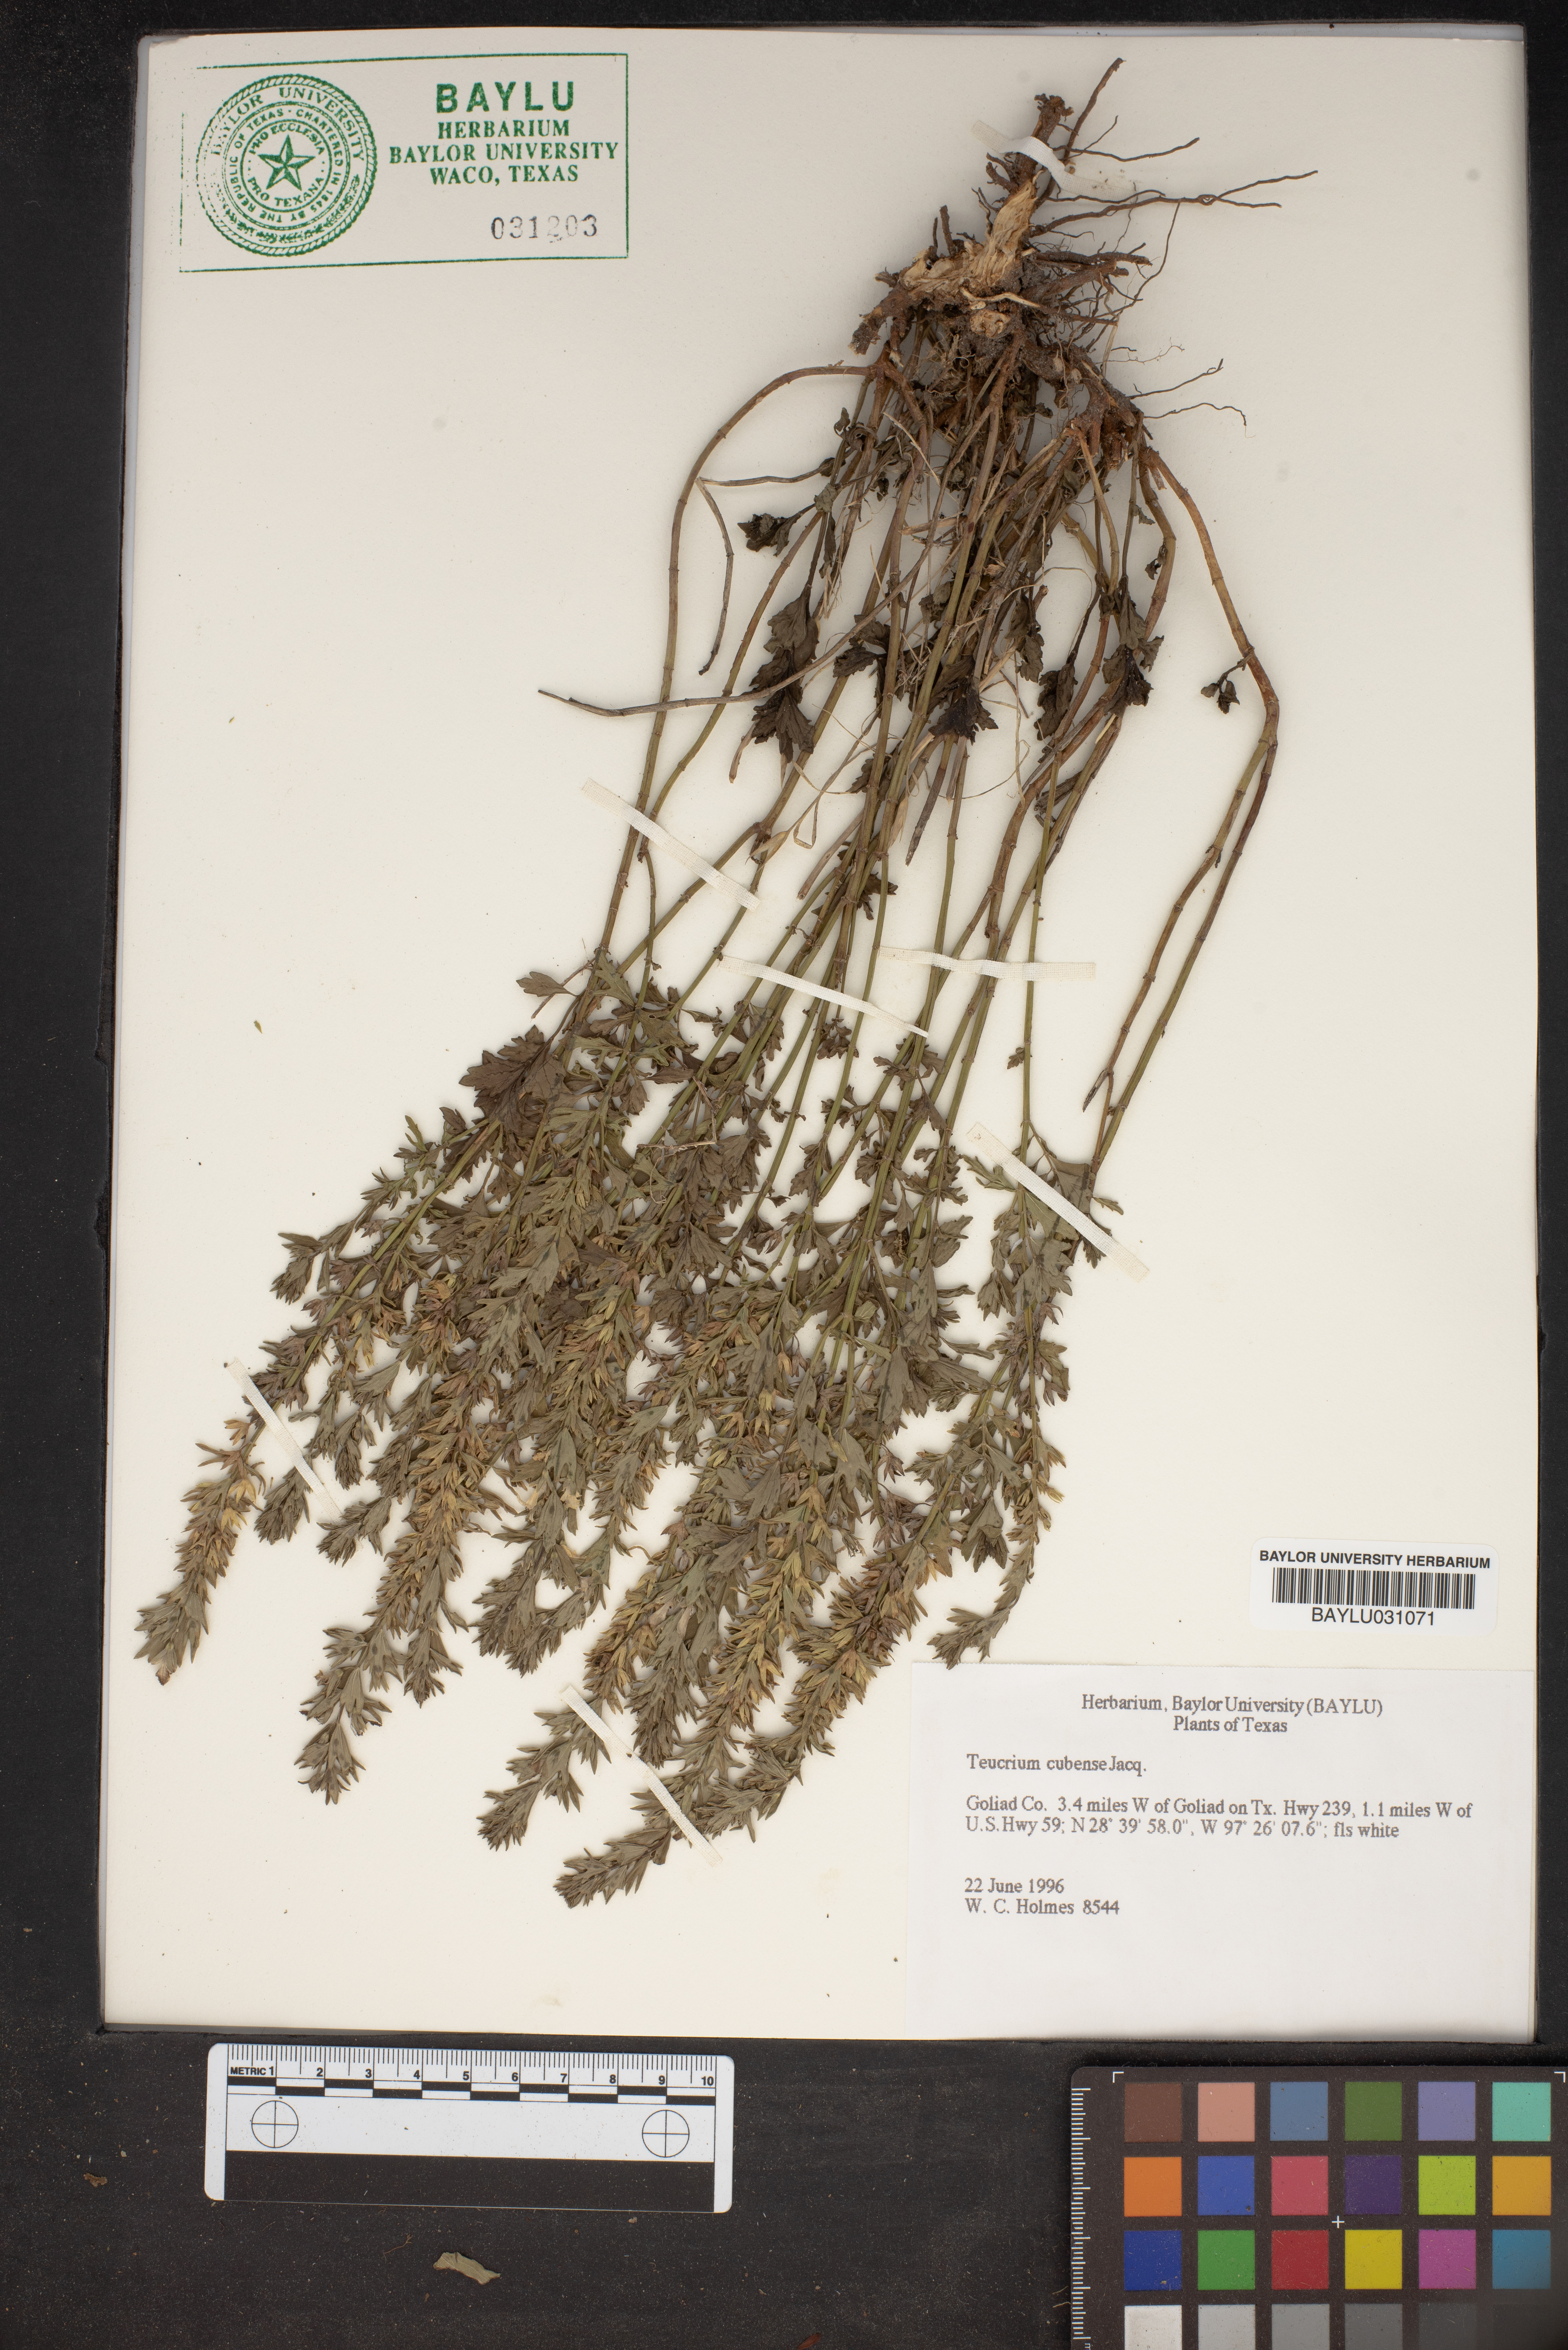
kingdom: Plantae
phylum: Tracheophyta
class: Magnoliopsida
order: Lamiales
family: Lamiaceae
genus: Teucrium
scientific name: Teucrium cubense
